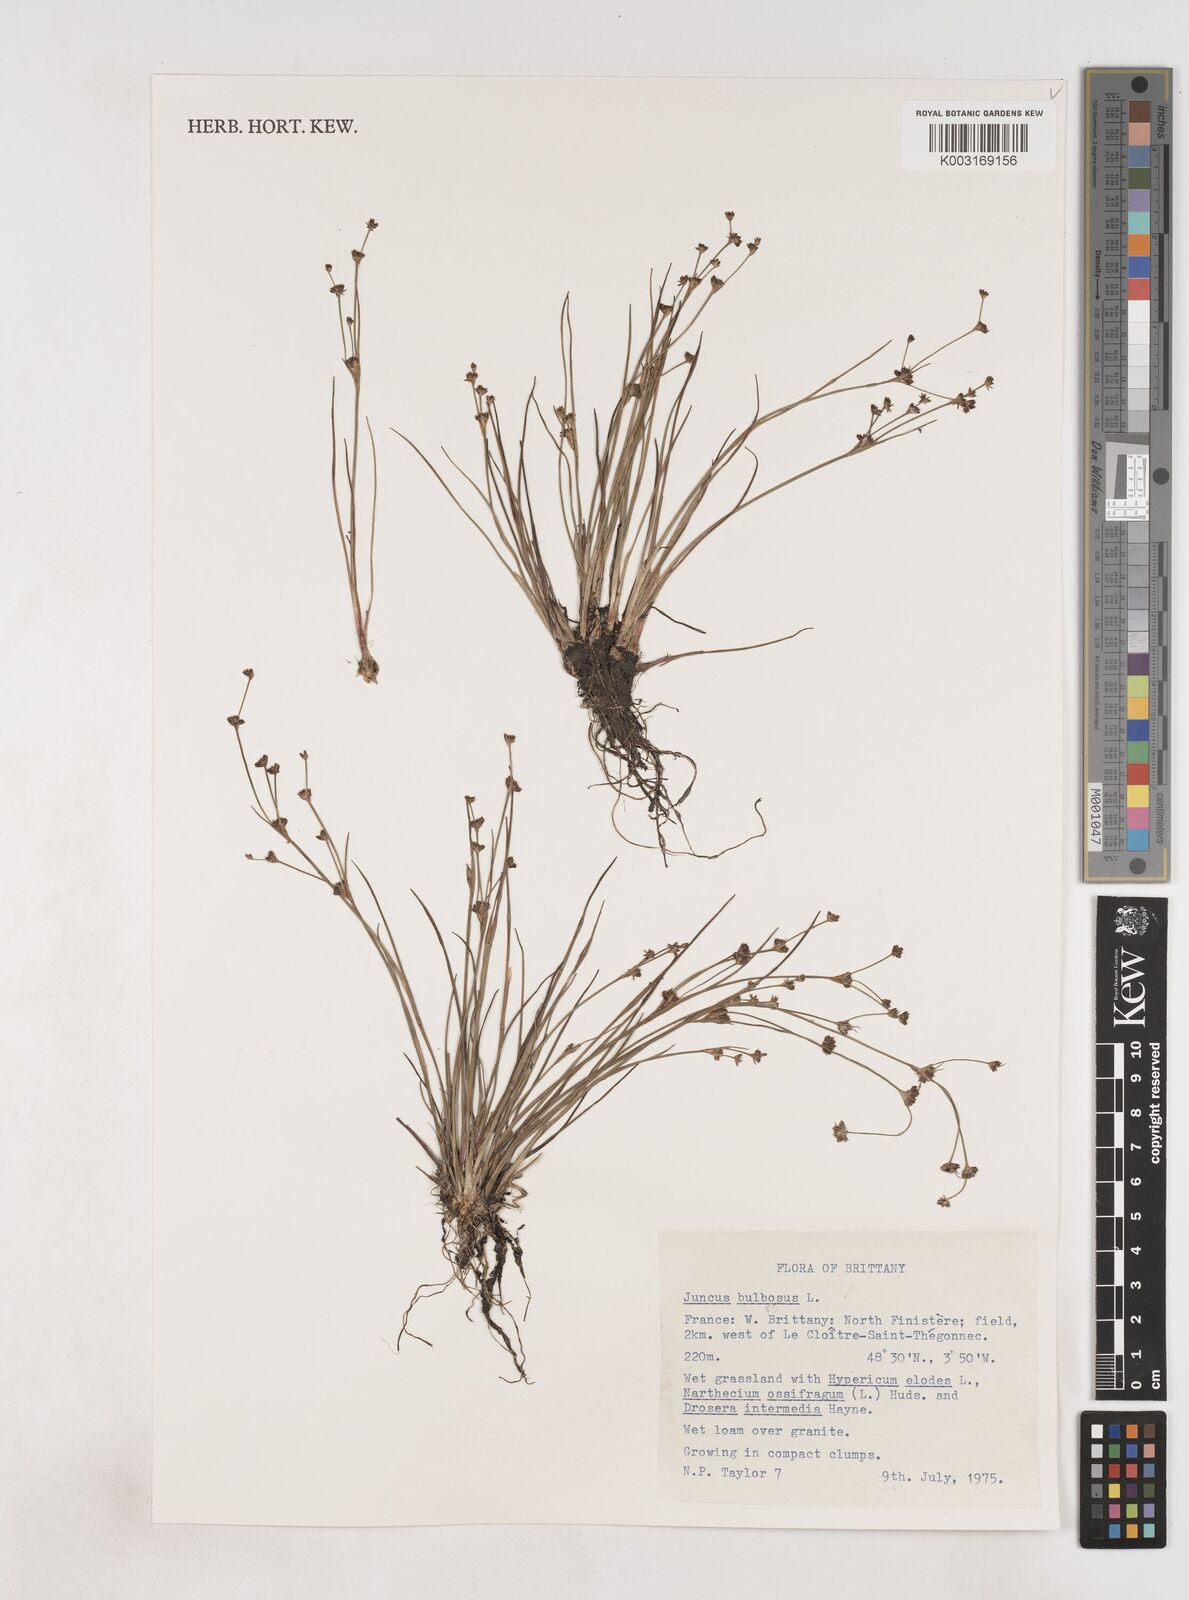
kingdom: Plantae
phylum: Tracheophyta
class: Liliopsida
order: Poales
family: Juncaceae
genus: Juncus
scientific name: Juncus bulbosus
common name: Bulbous rush
